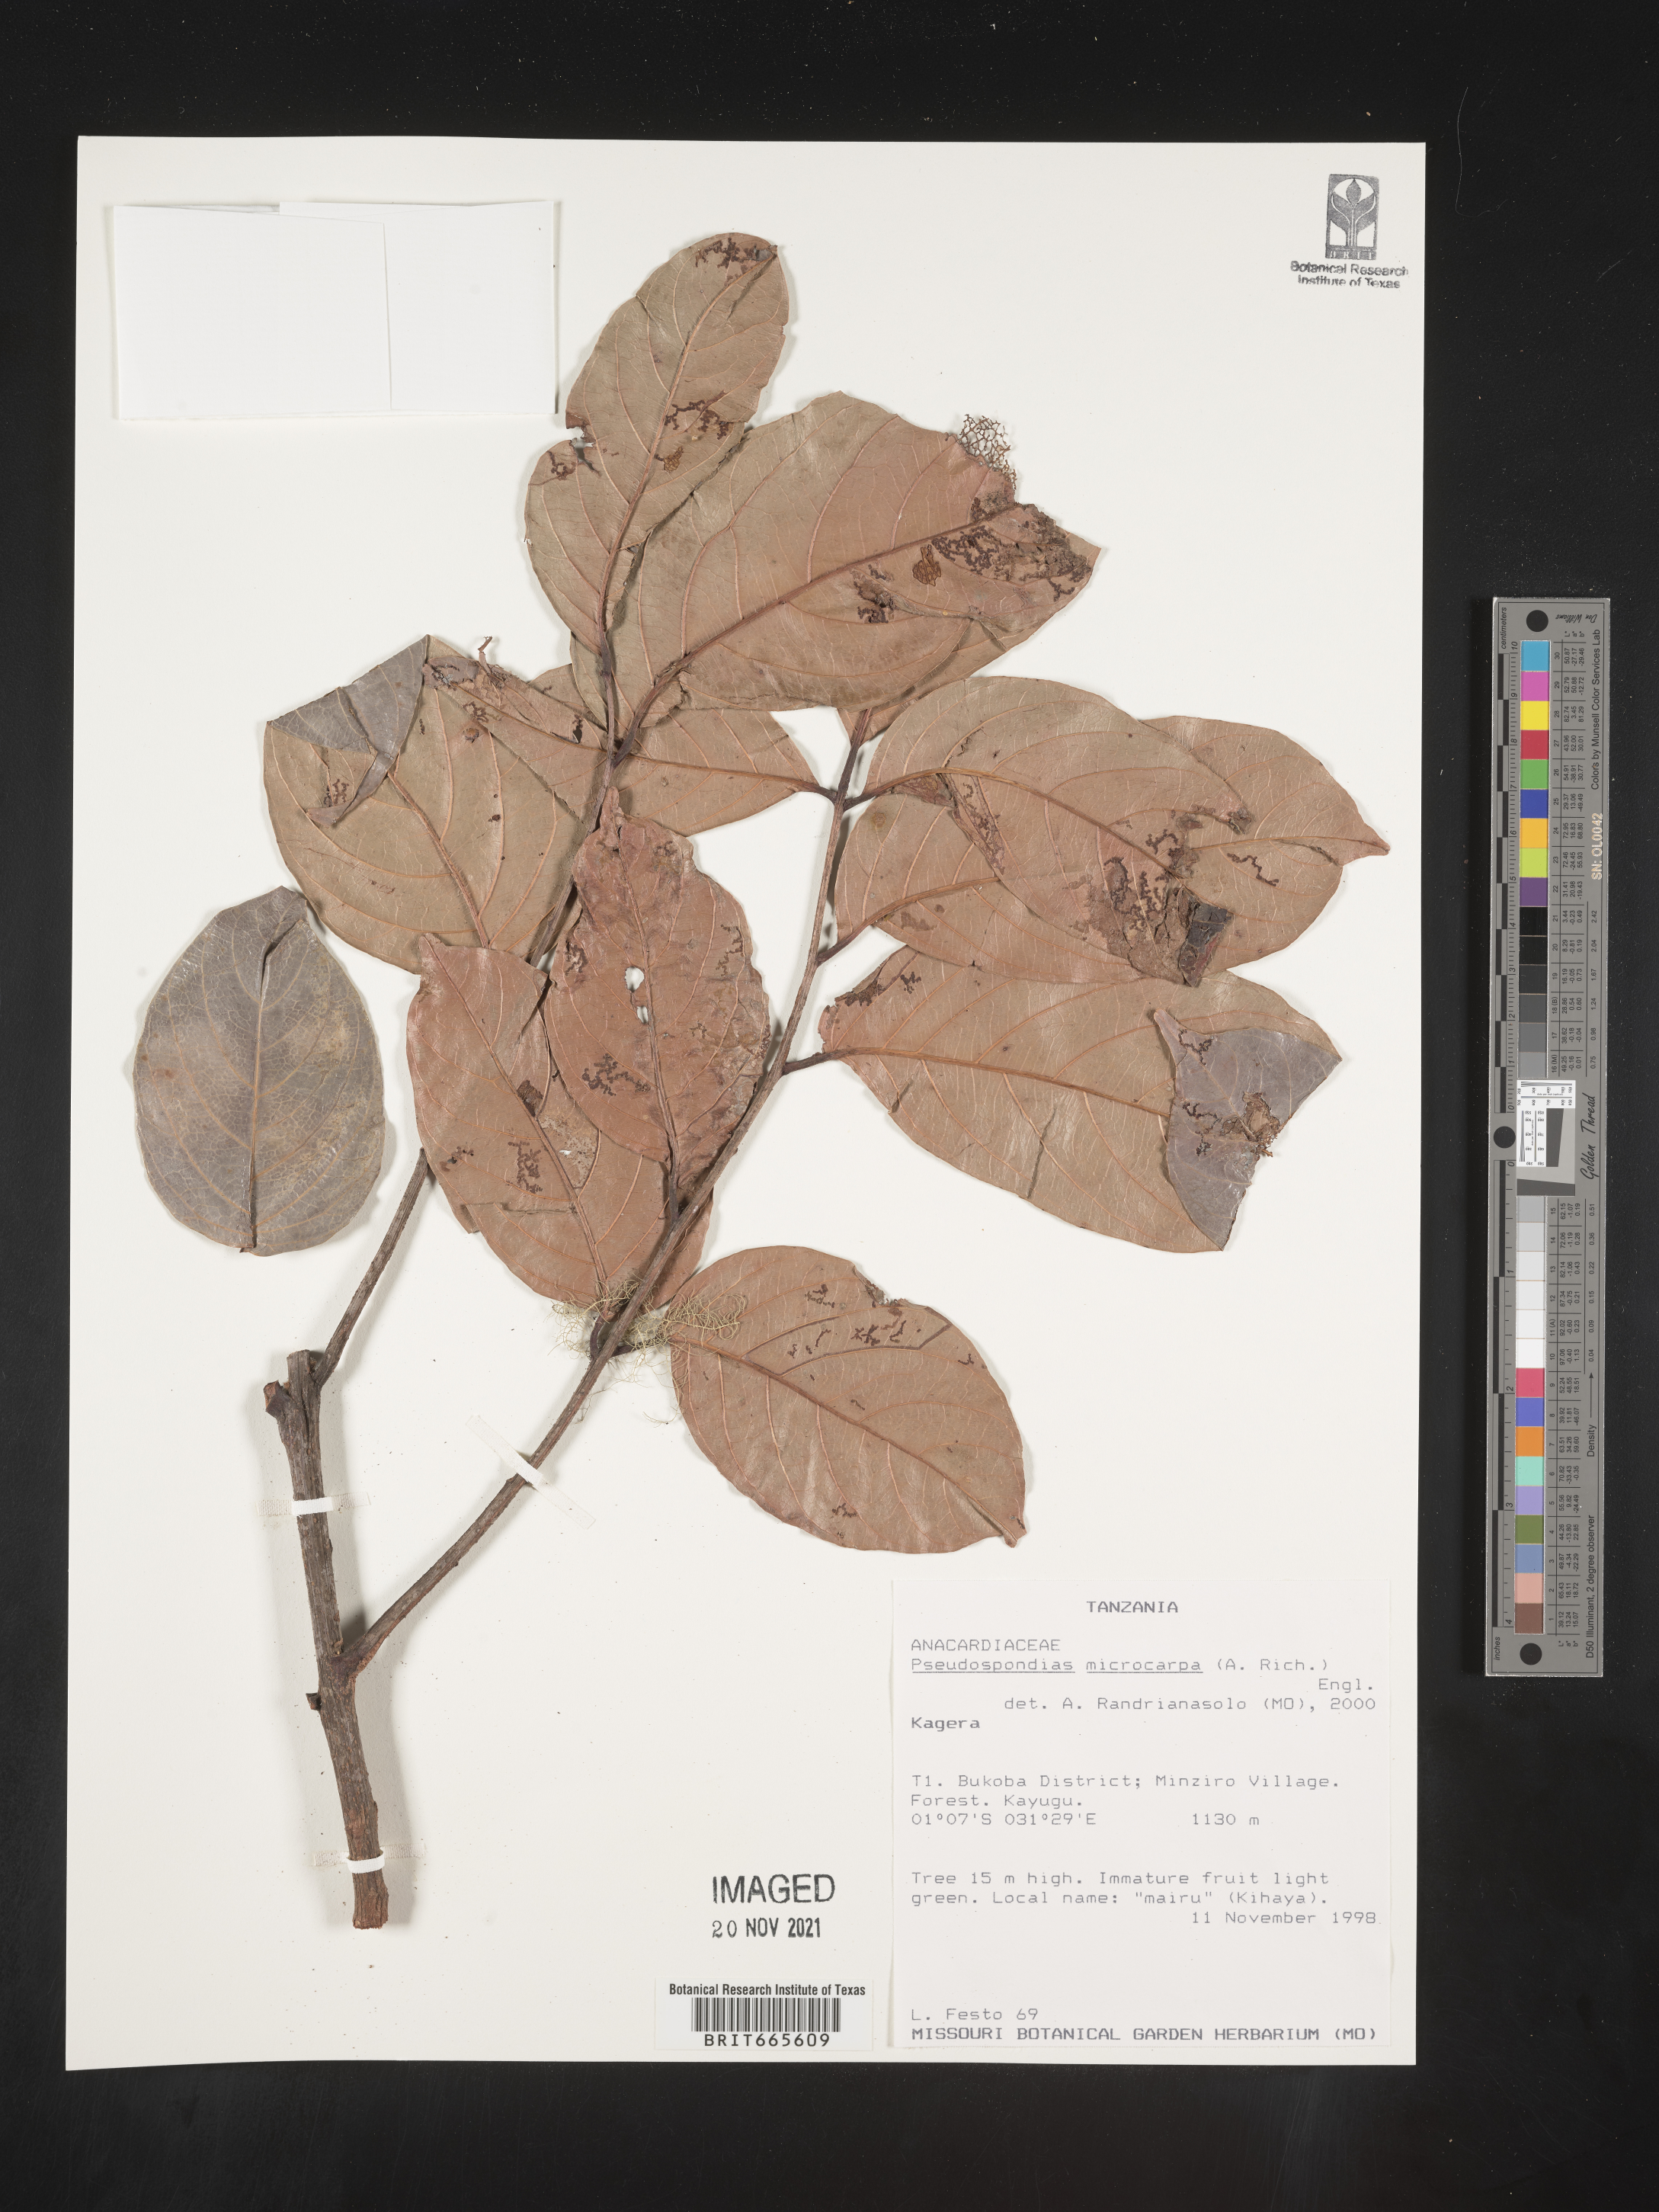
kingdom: Plantae
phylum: Tracheophyta
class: Magnoliopsida
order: Sapindales
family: Anacardiaceae
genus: Pseudospondias
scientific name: Pseudospondias
